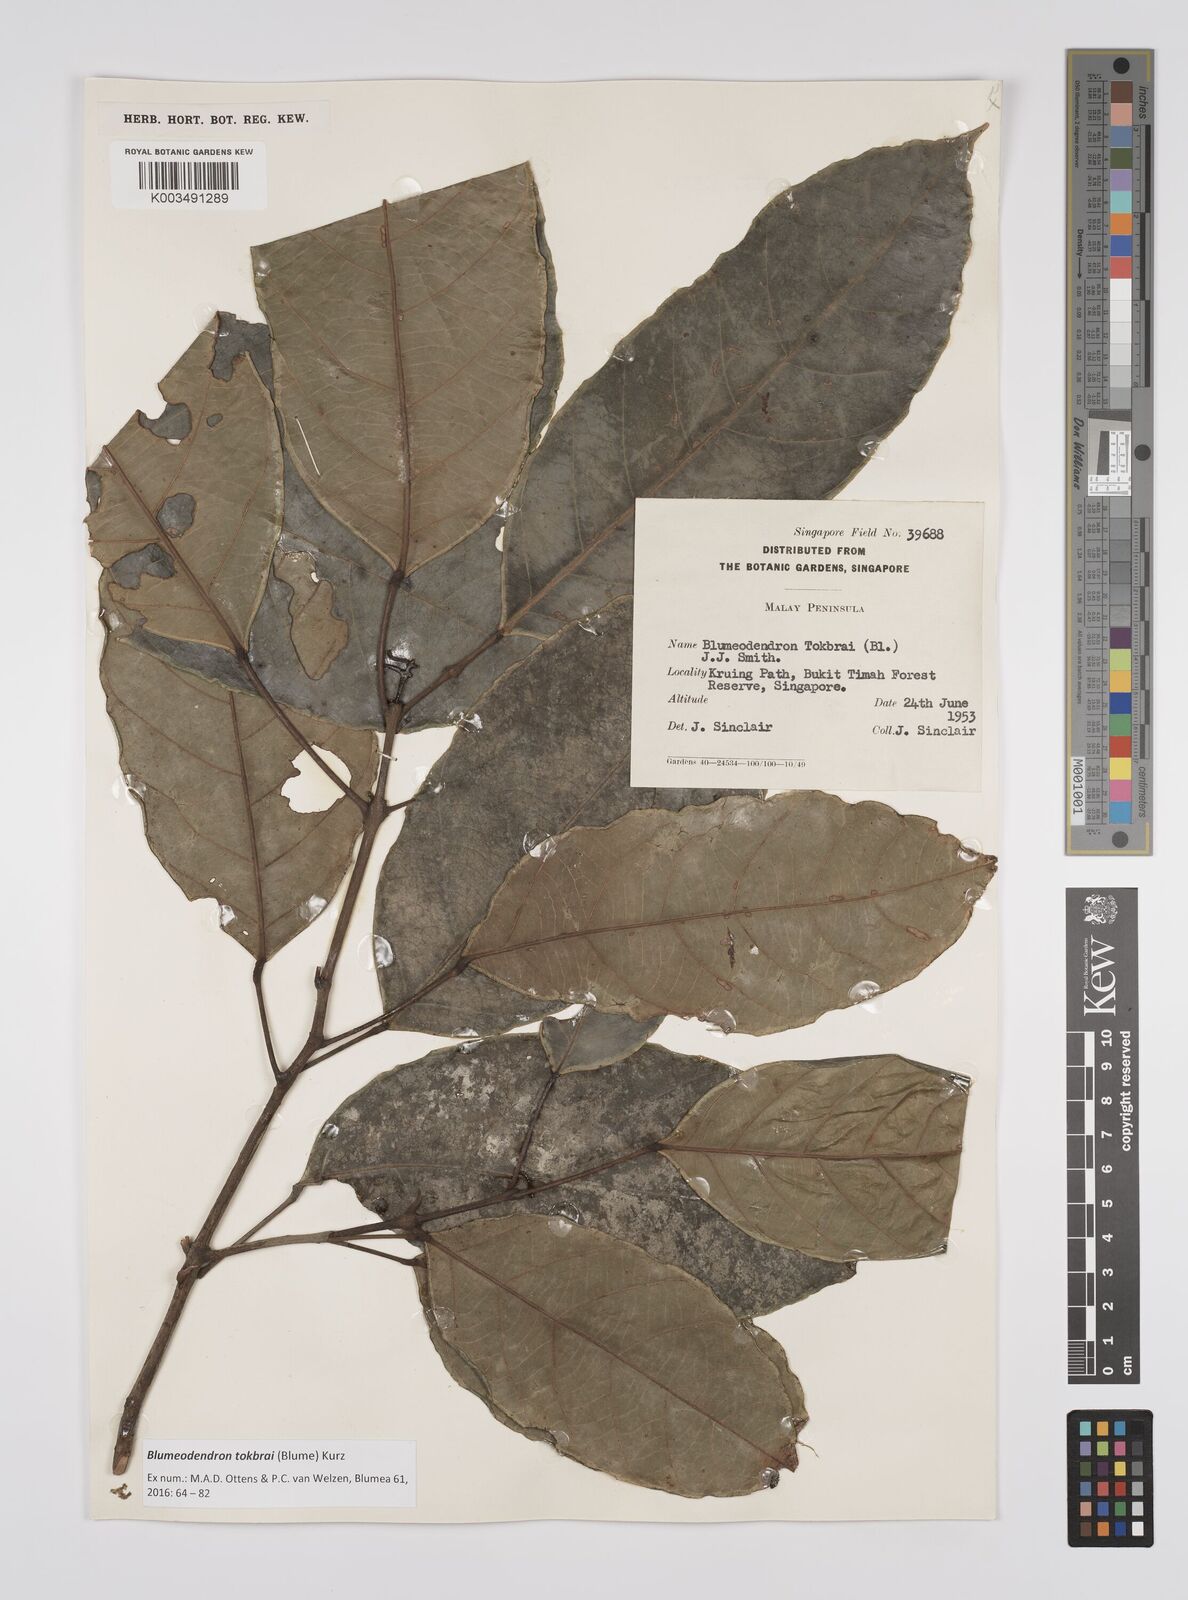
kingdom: Plantae
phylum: Tracheophyta
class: Magnoliopsida
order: Malpighiales
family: Euphorbiaceae
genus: Blumeodendron
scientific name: Blumeodendron tokbrai
